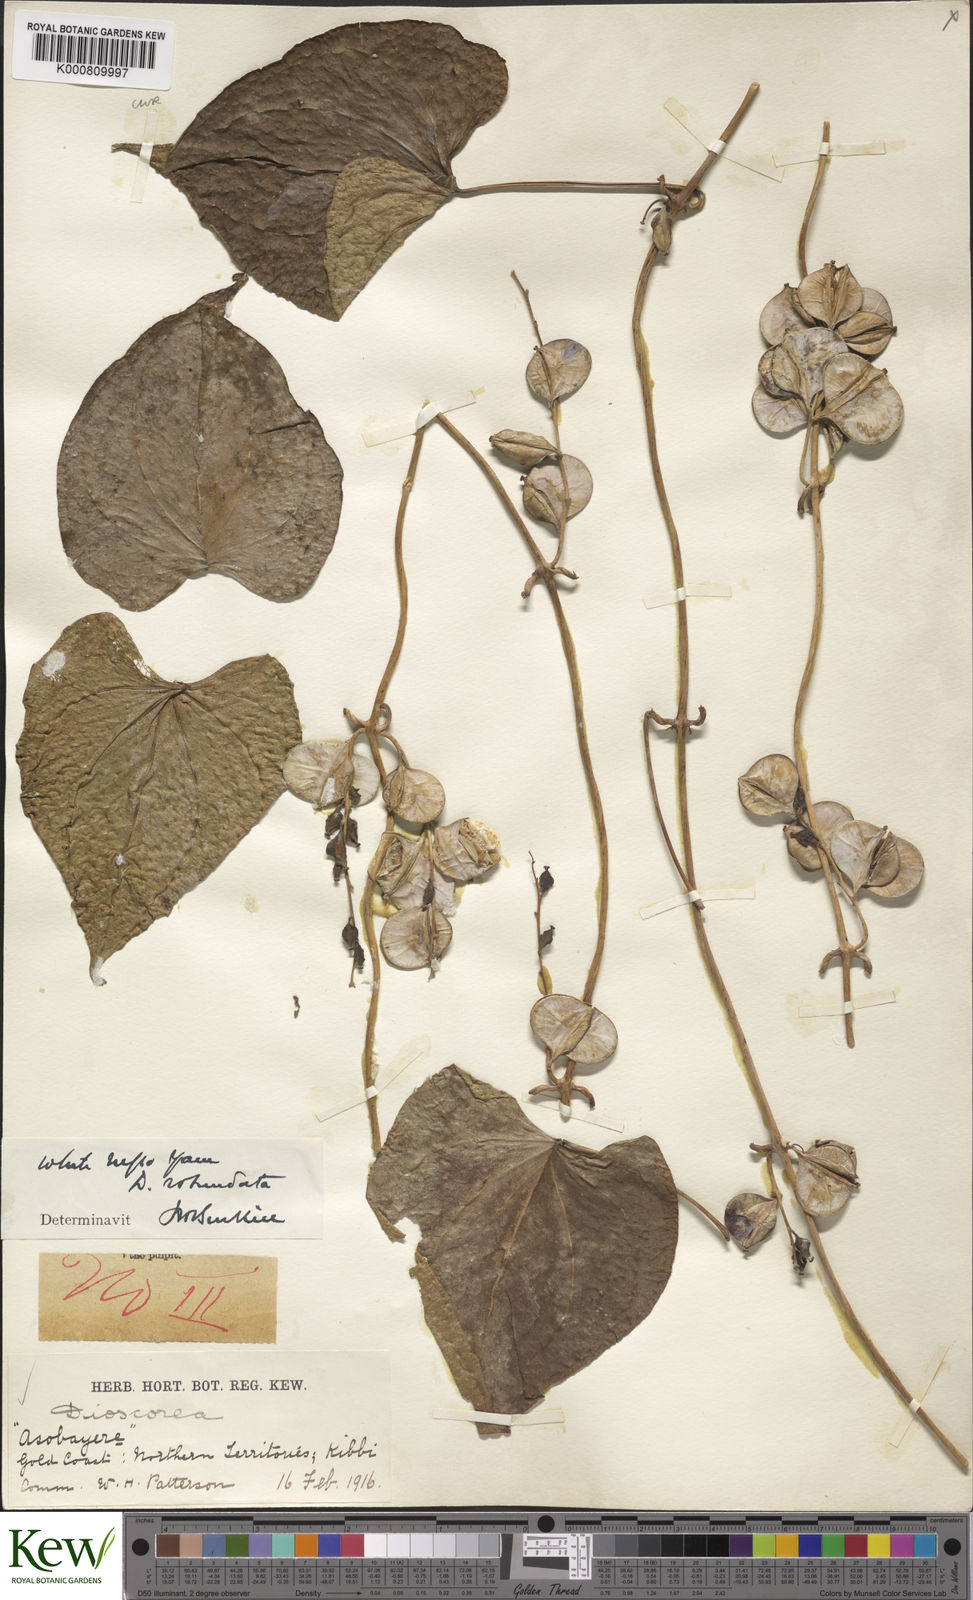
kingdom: Plantae
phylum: Tracheophyta
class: Liliopsida
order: Dioscoreales
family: Dioscoreaceae
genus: Dioscorea
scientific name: Dioscorea cayenensis
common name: Attoto yam
